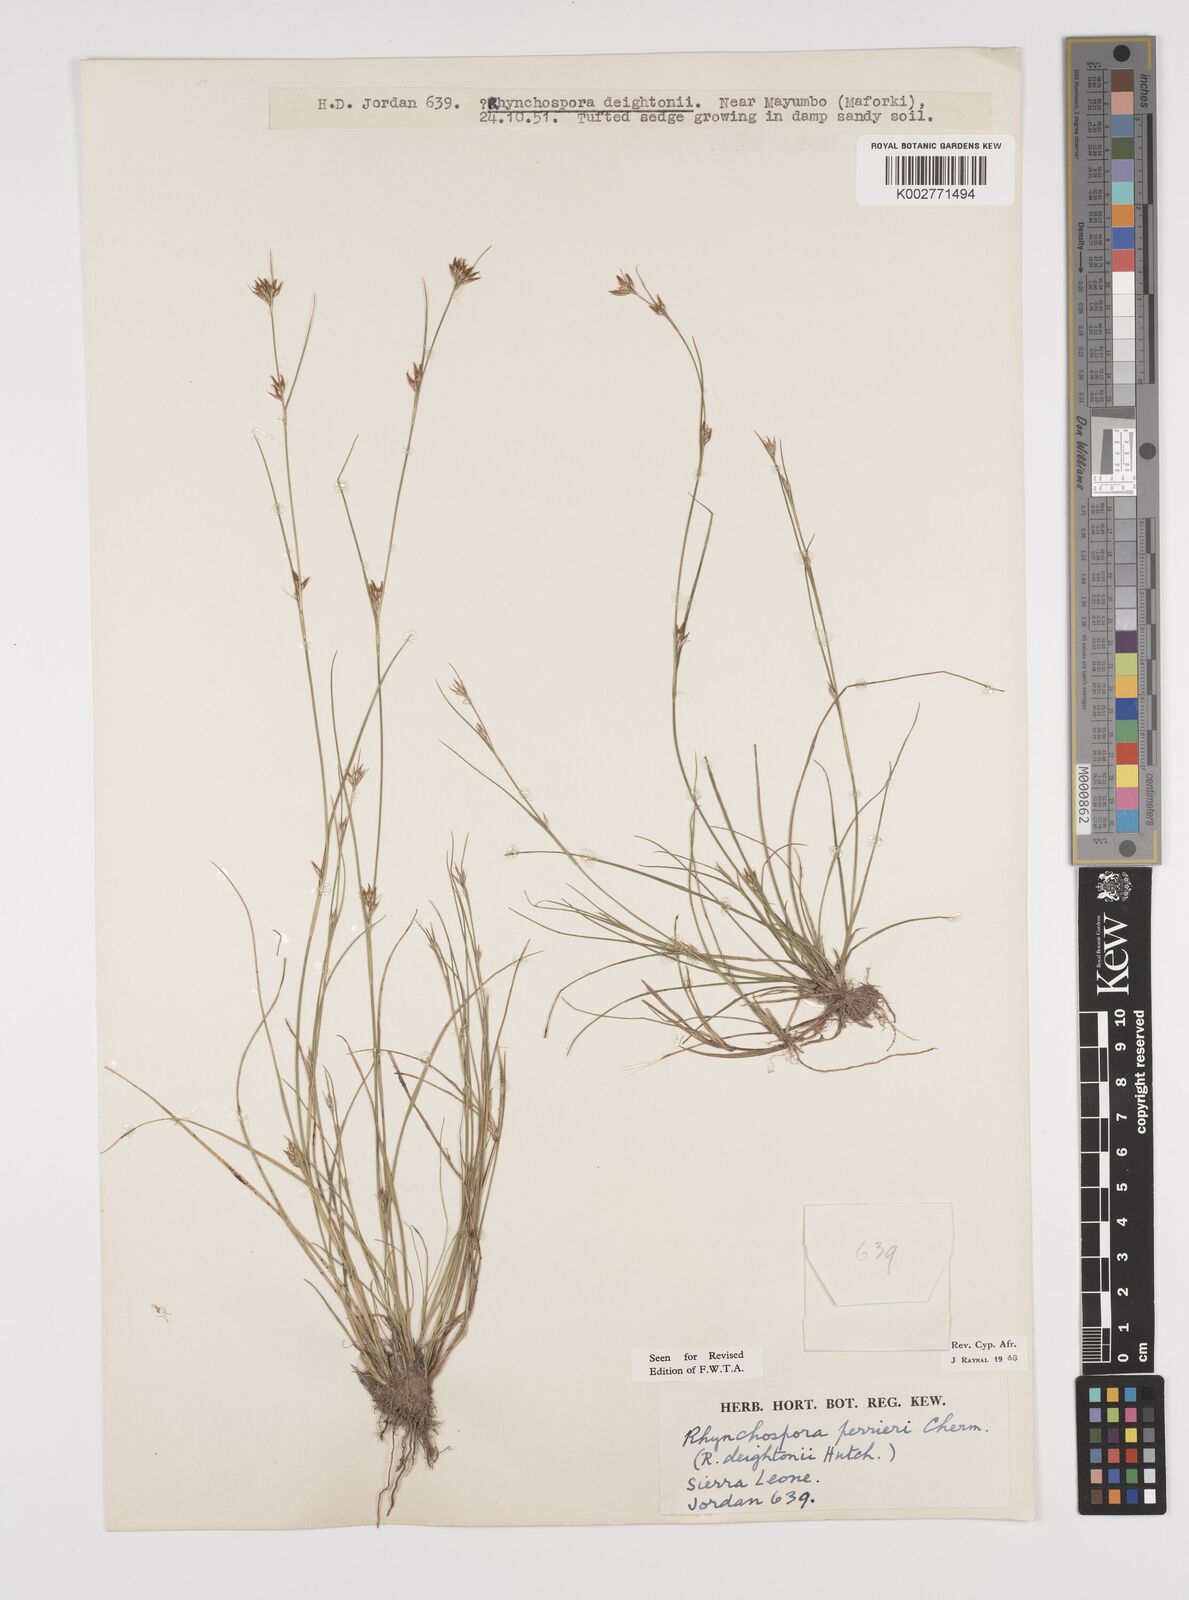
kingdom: Plantae
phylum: Tracheophyta
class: Liliopsida
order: Poales
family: Cyperaceae
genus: Rhynchospora
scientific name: Rhynchospora perrieri
